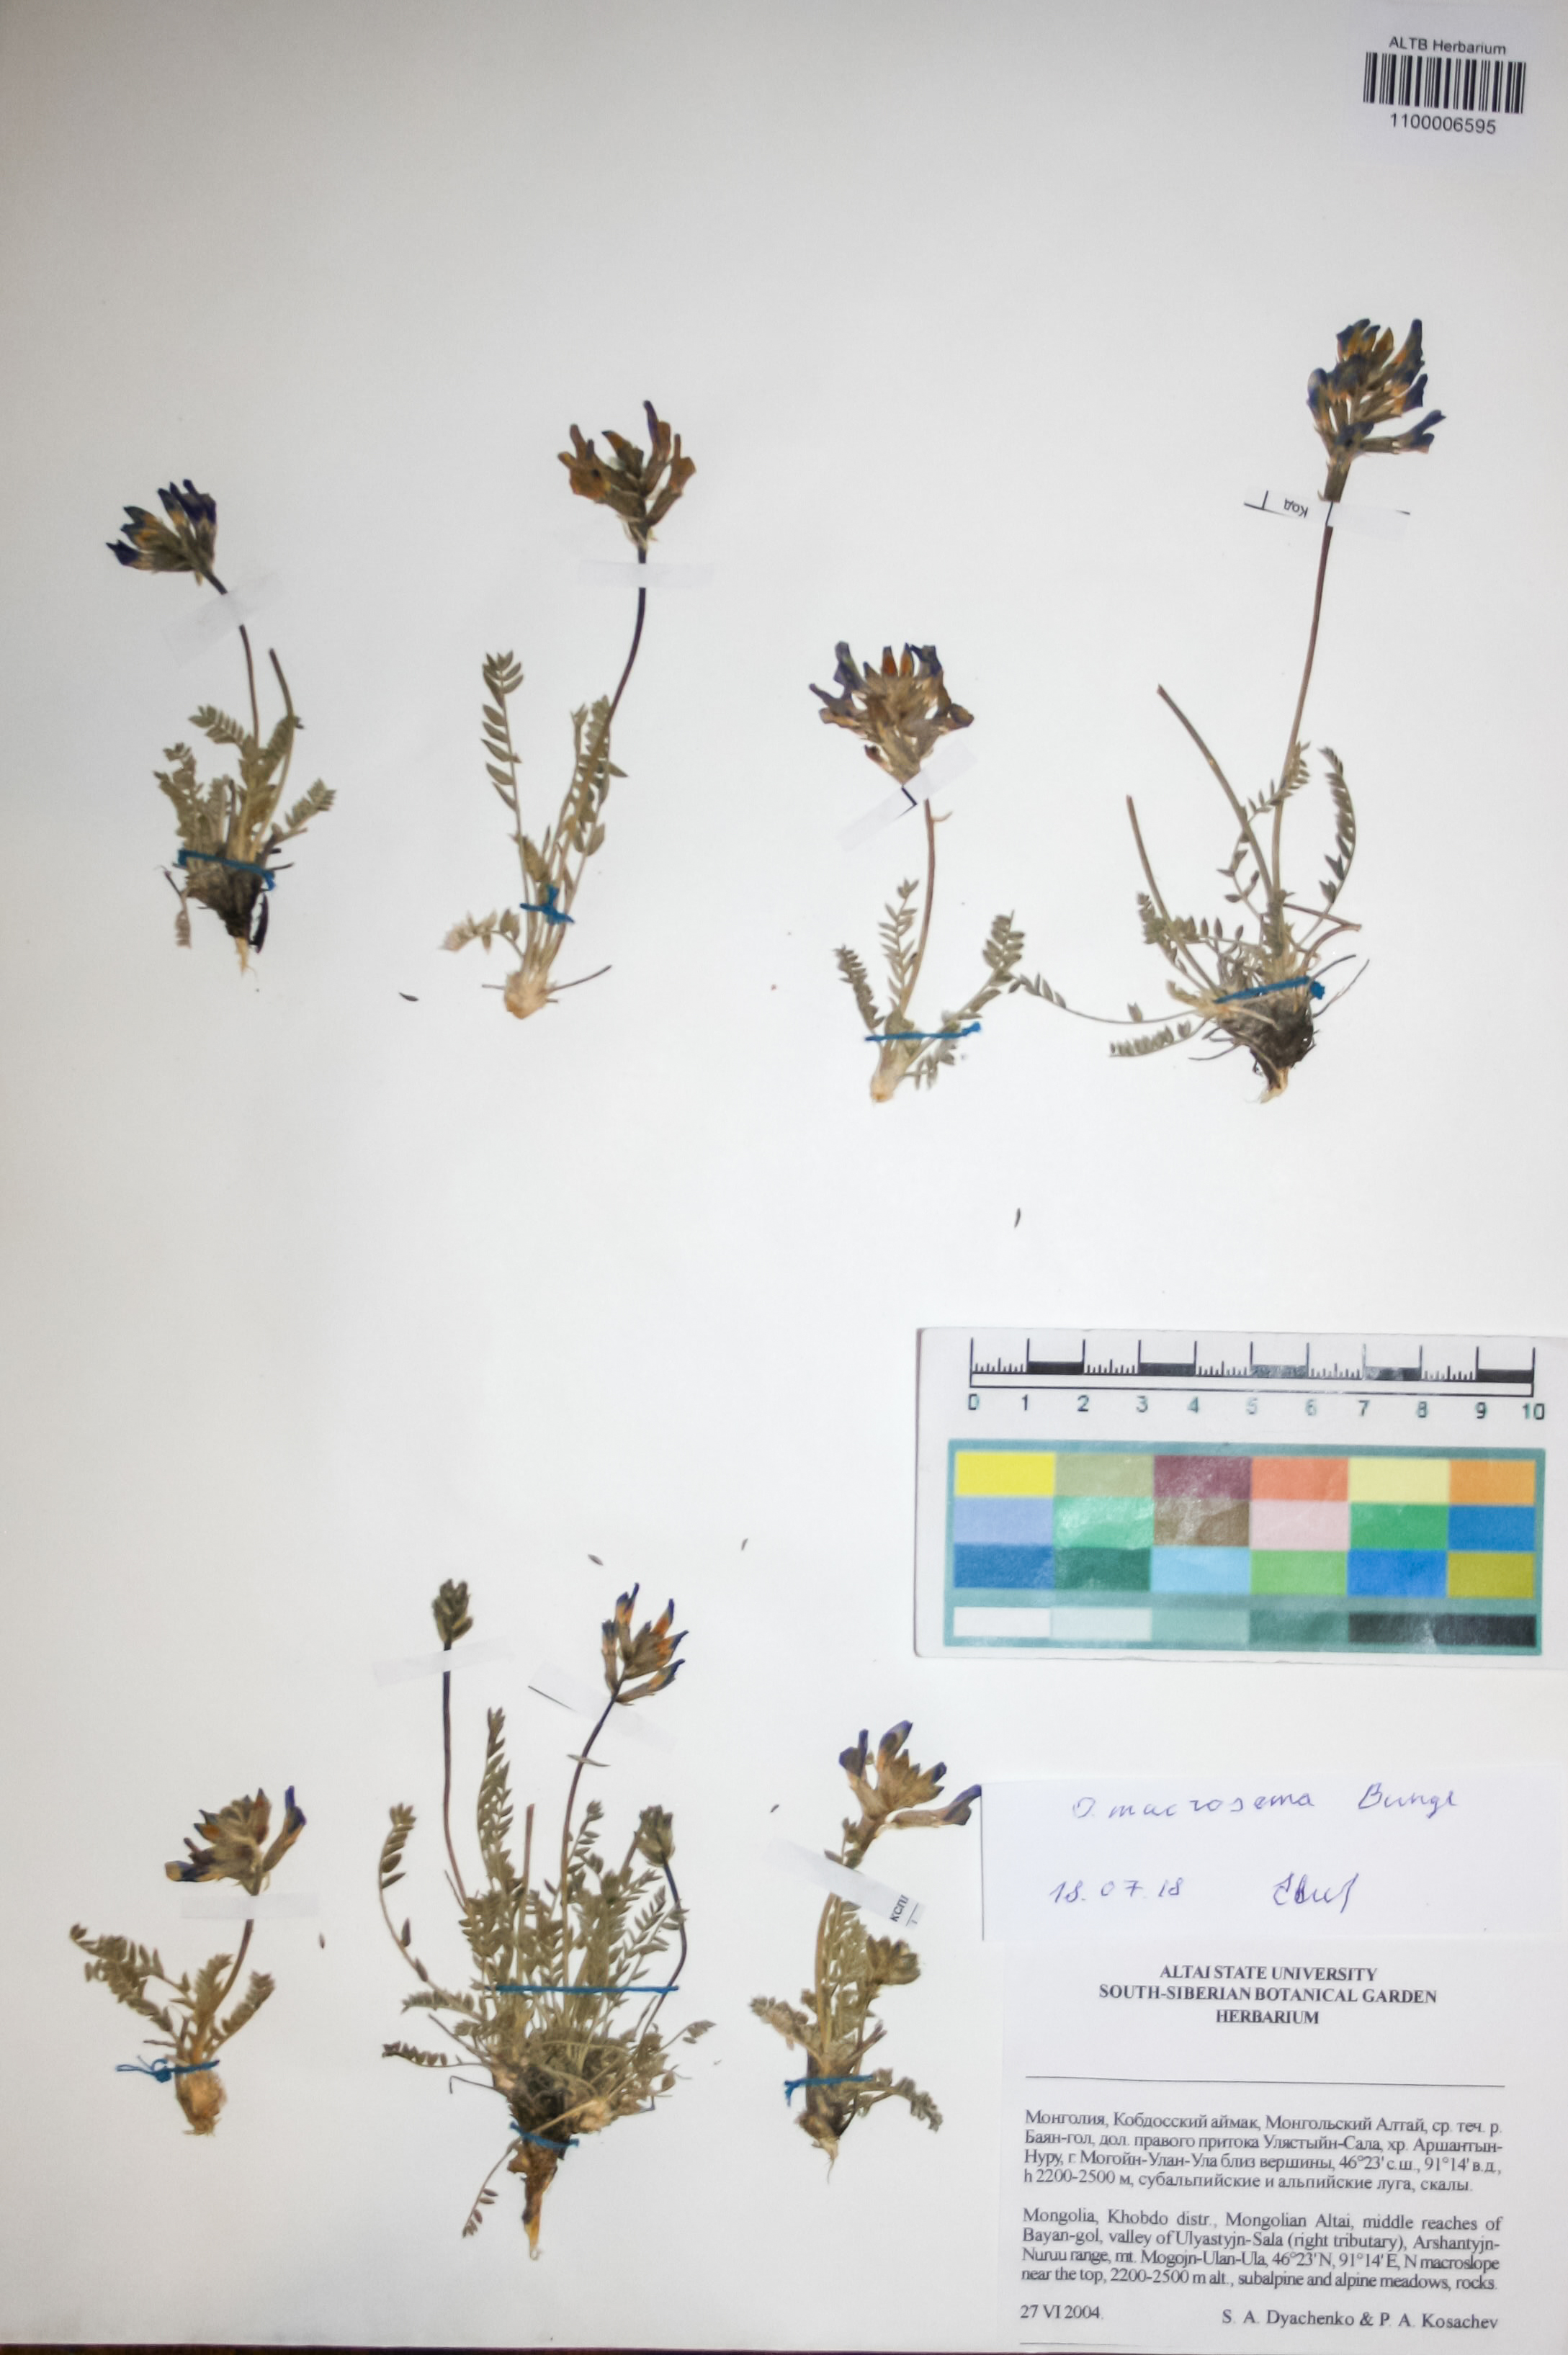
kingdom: Plantae
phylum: Tracheophyta
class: Magnoliopsida
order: Fabales
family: Fabaceae
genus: Oxytropis
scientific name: Oxytropis macrosema
